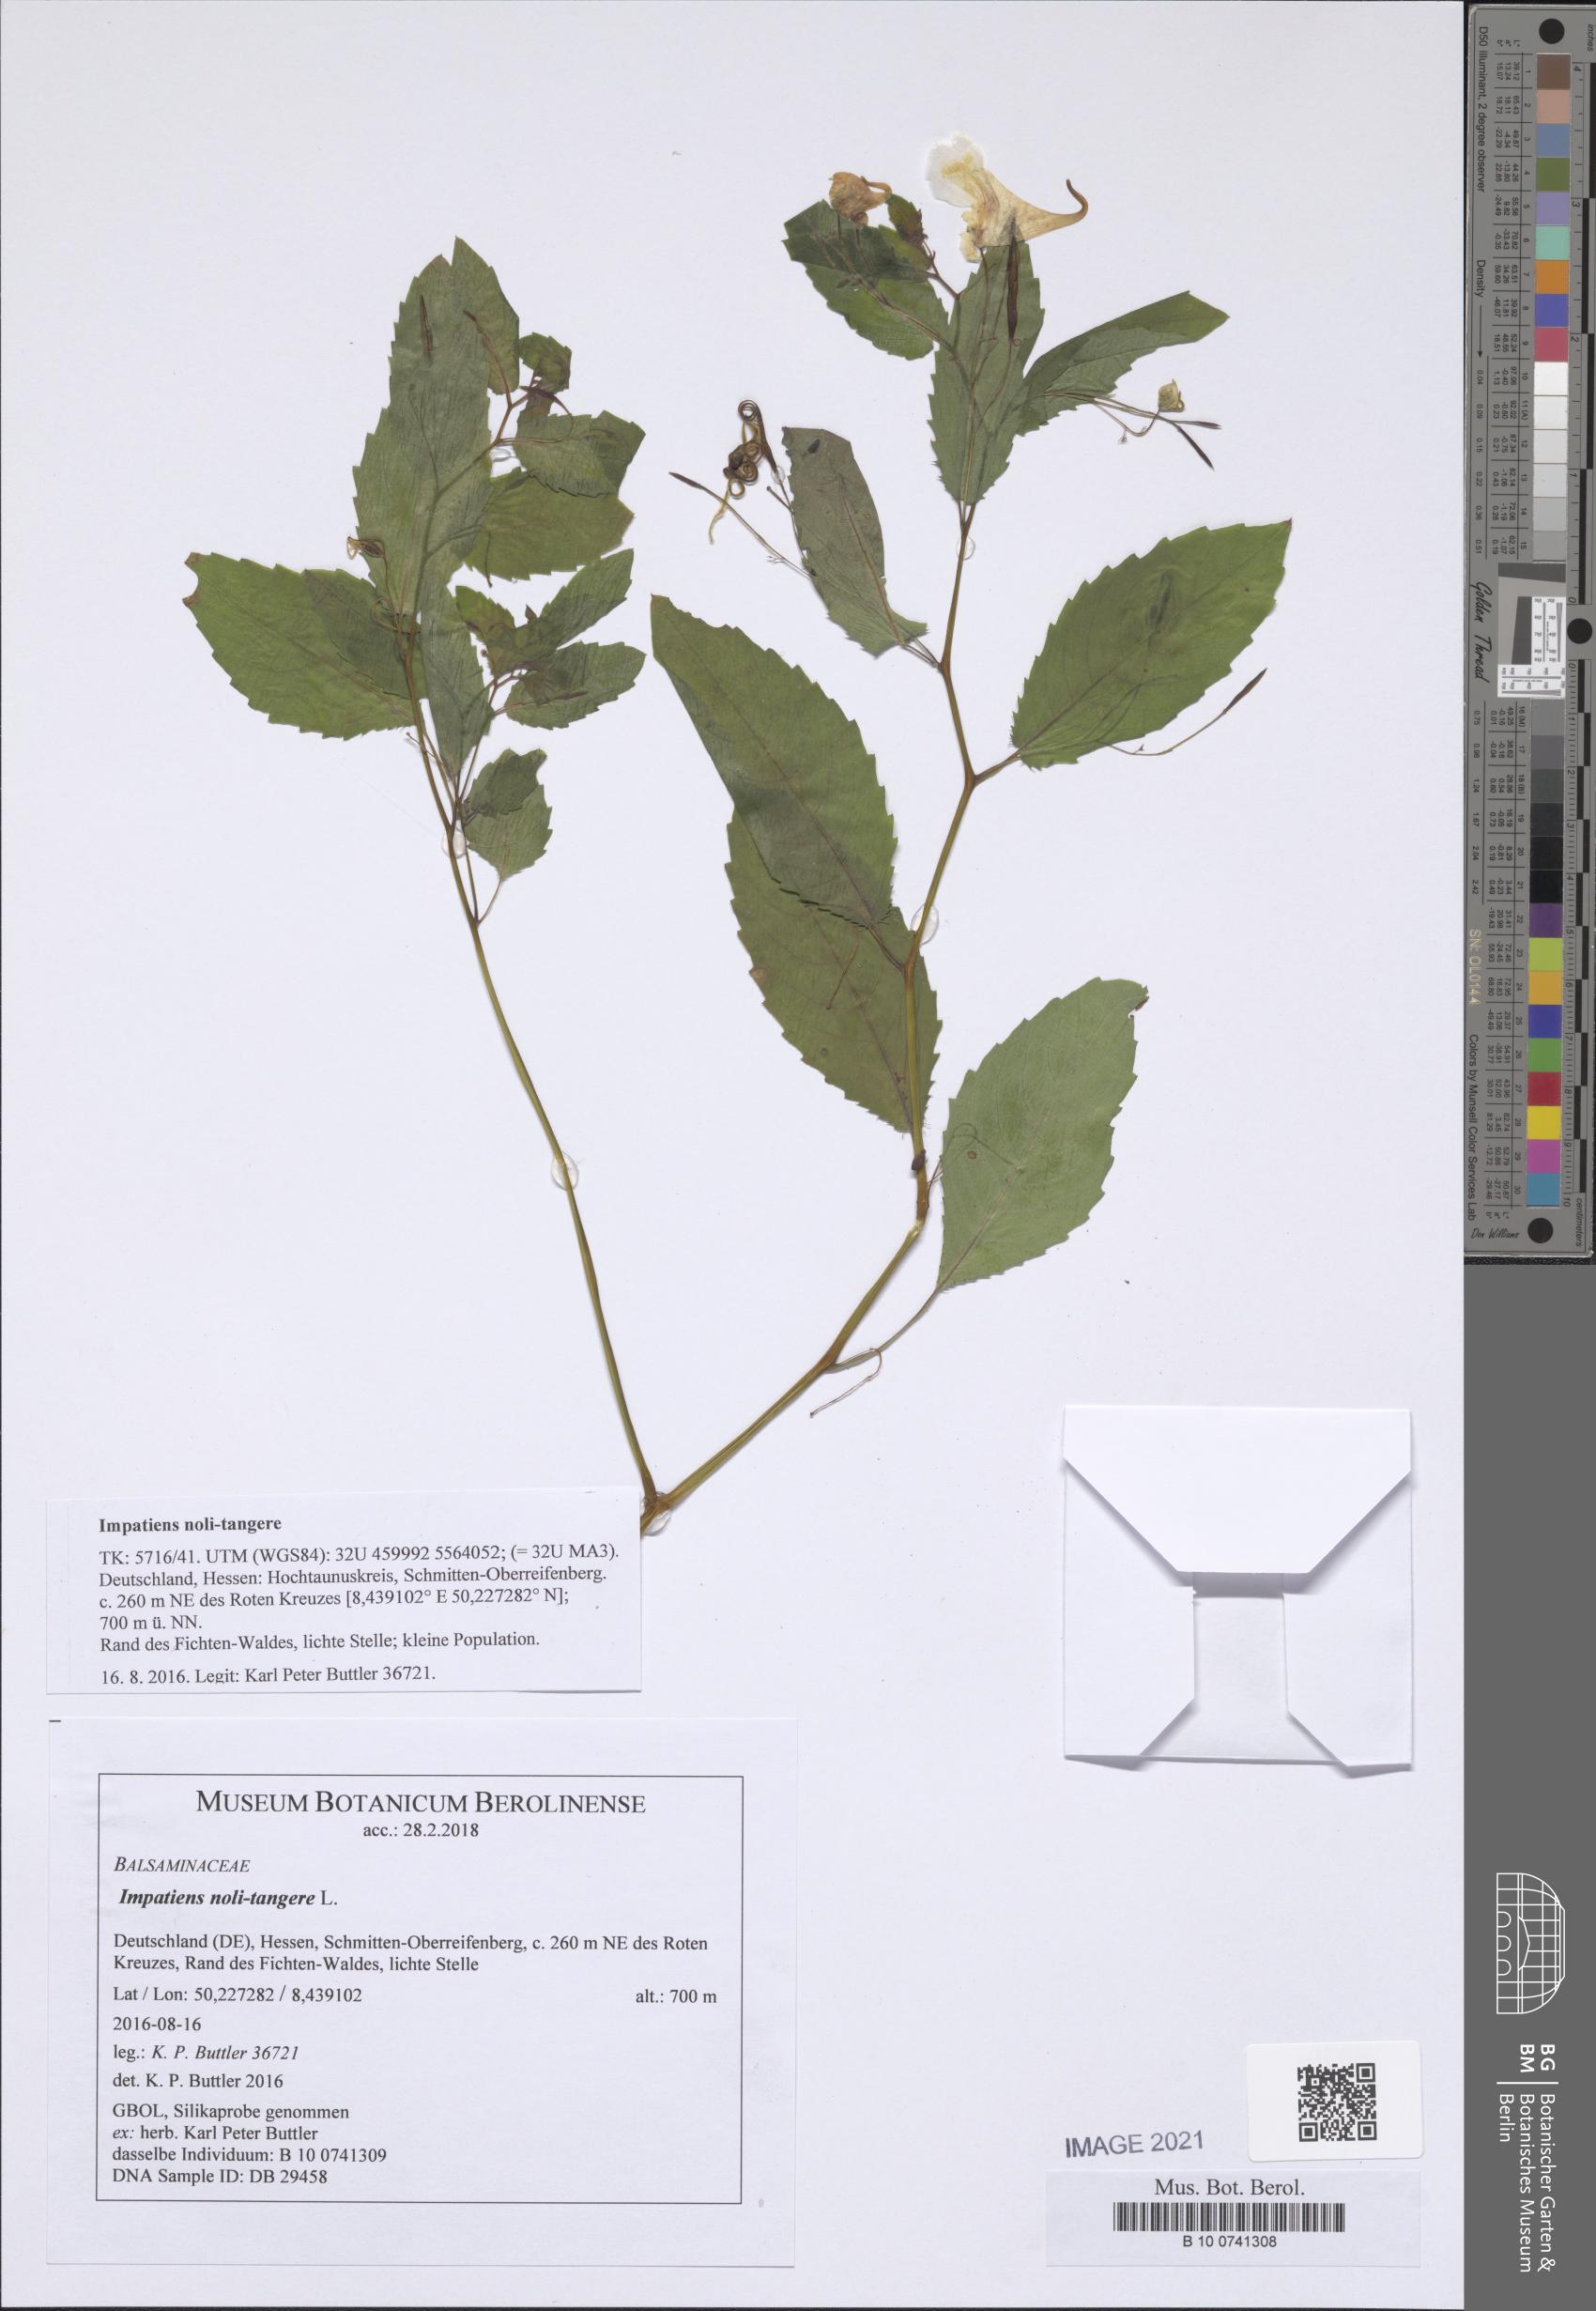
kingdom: Plantae
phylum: Tracheophyta
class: Magnoliopsida
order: Ericales
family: Balsaminaceae
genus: Impatiens
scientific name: Impatiens noli-tangere
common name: Touch-me-not balsam
